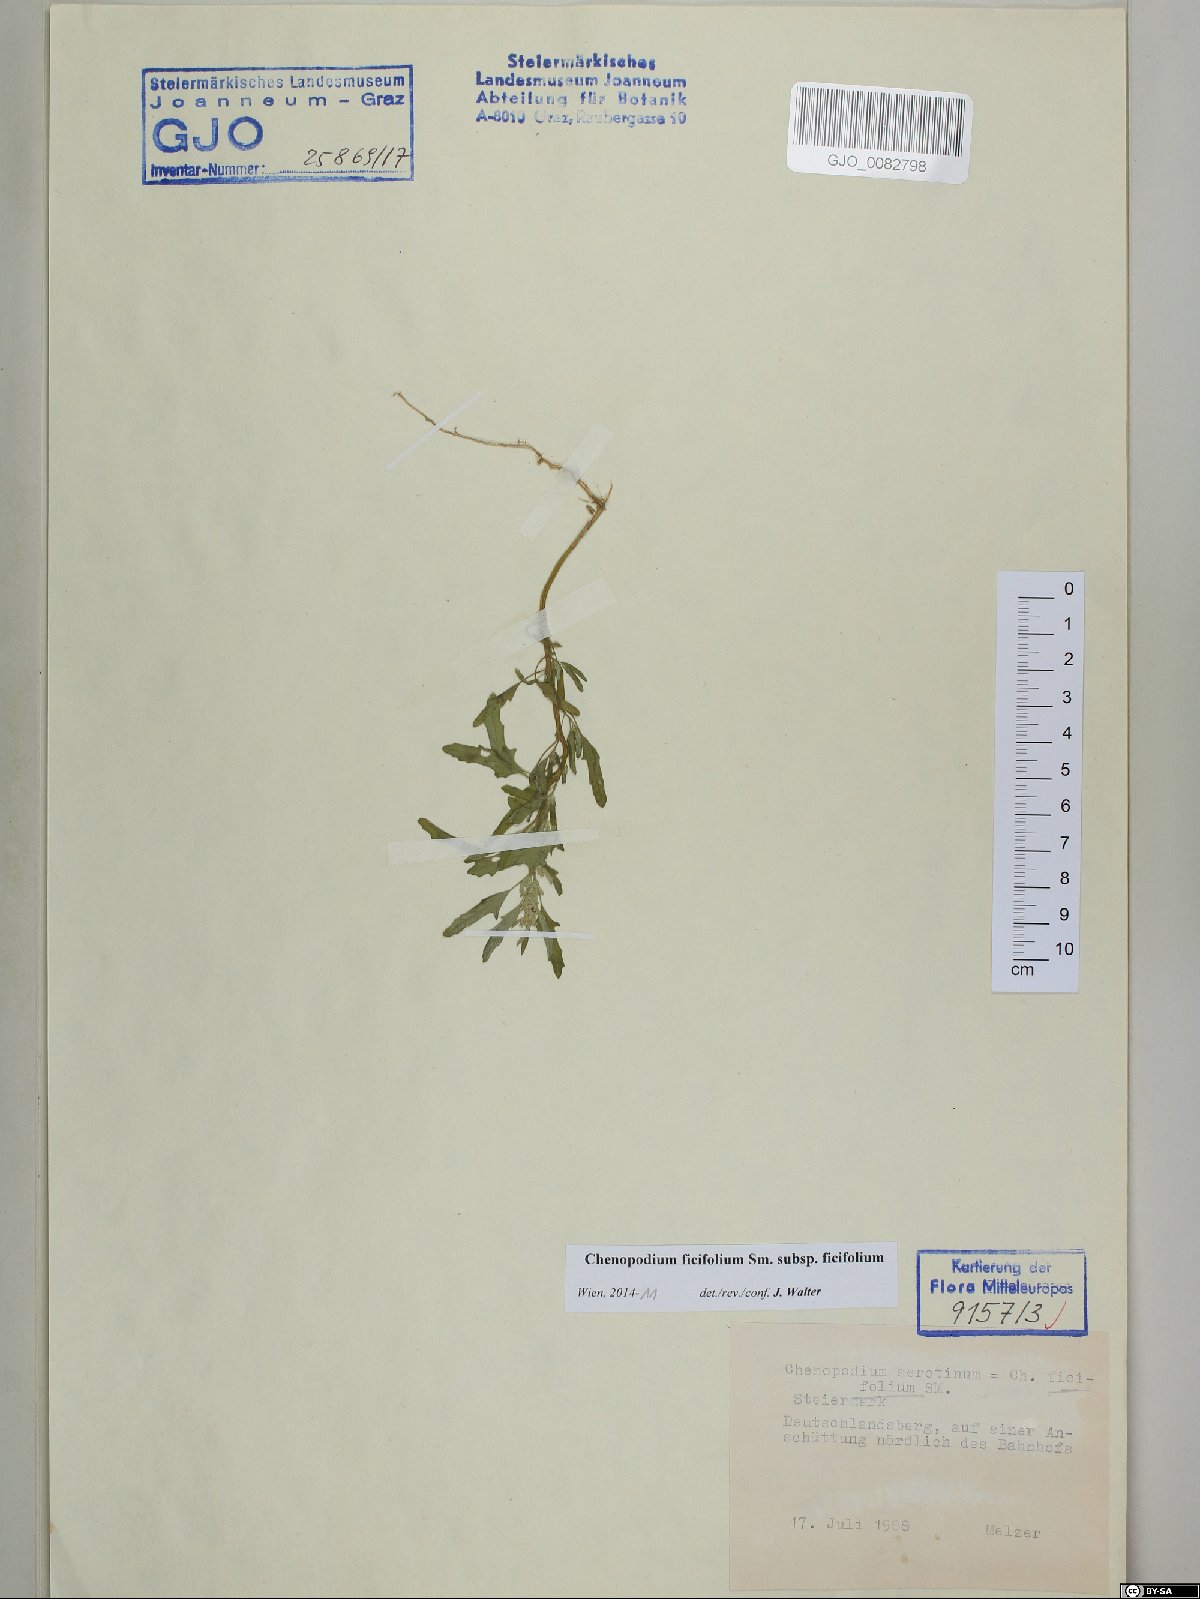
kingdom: Plantae
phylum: Tracheophyta
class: Magnoliopsida
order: Caryophyllales
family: Amaranthaceae
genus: Chenopodium
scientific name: Chenopodium ficifolium
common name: Fig-leaved goosefoot
